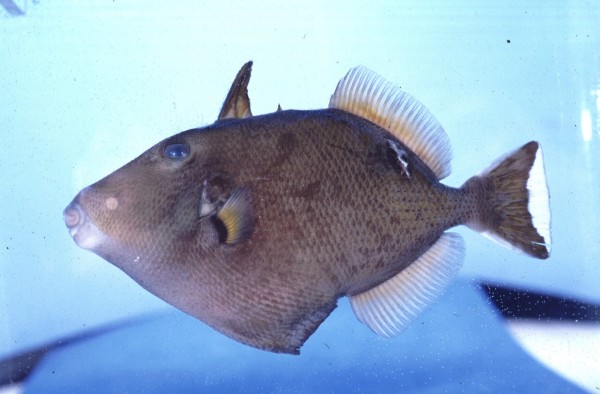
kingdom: Animalia
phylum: Chordata
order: Tetraodontiformes
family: Balistidae
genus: Sufflamen
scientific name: Sufflamen chrysopterum
